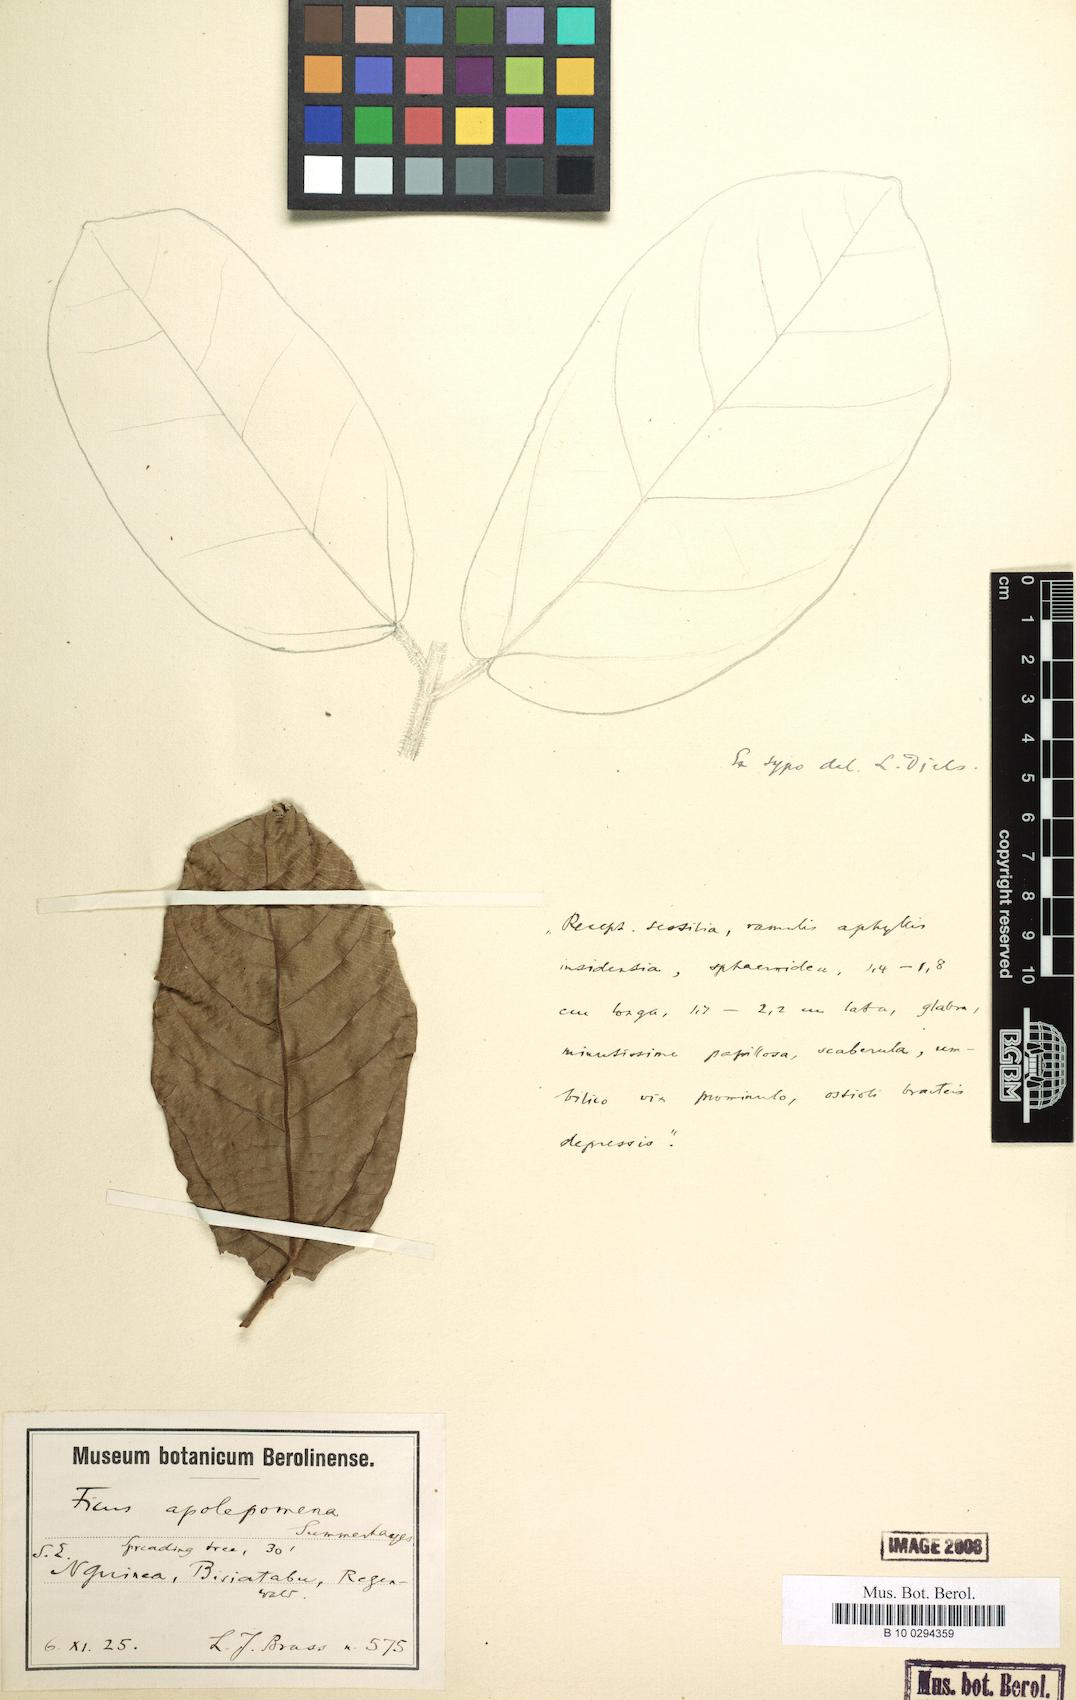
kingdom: Plantae
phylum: Tracheophyta
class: Magnoliopsida
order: Rosales
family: Moraceae
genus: Ficus
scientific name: Ficus opposita
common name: Figwood
